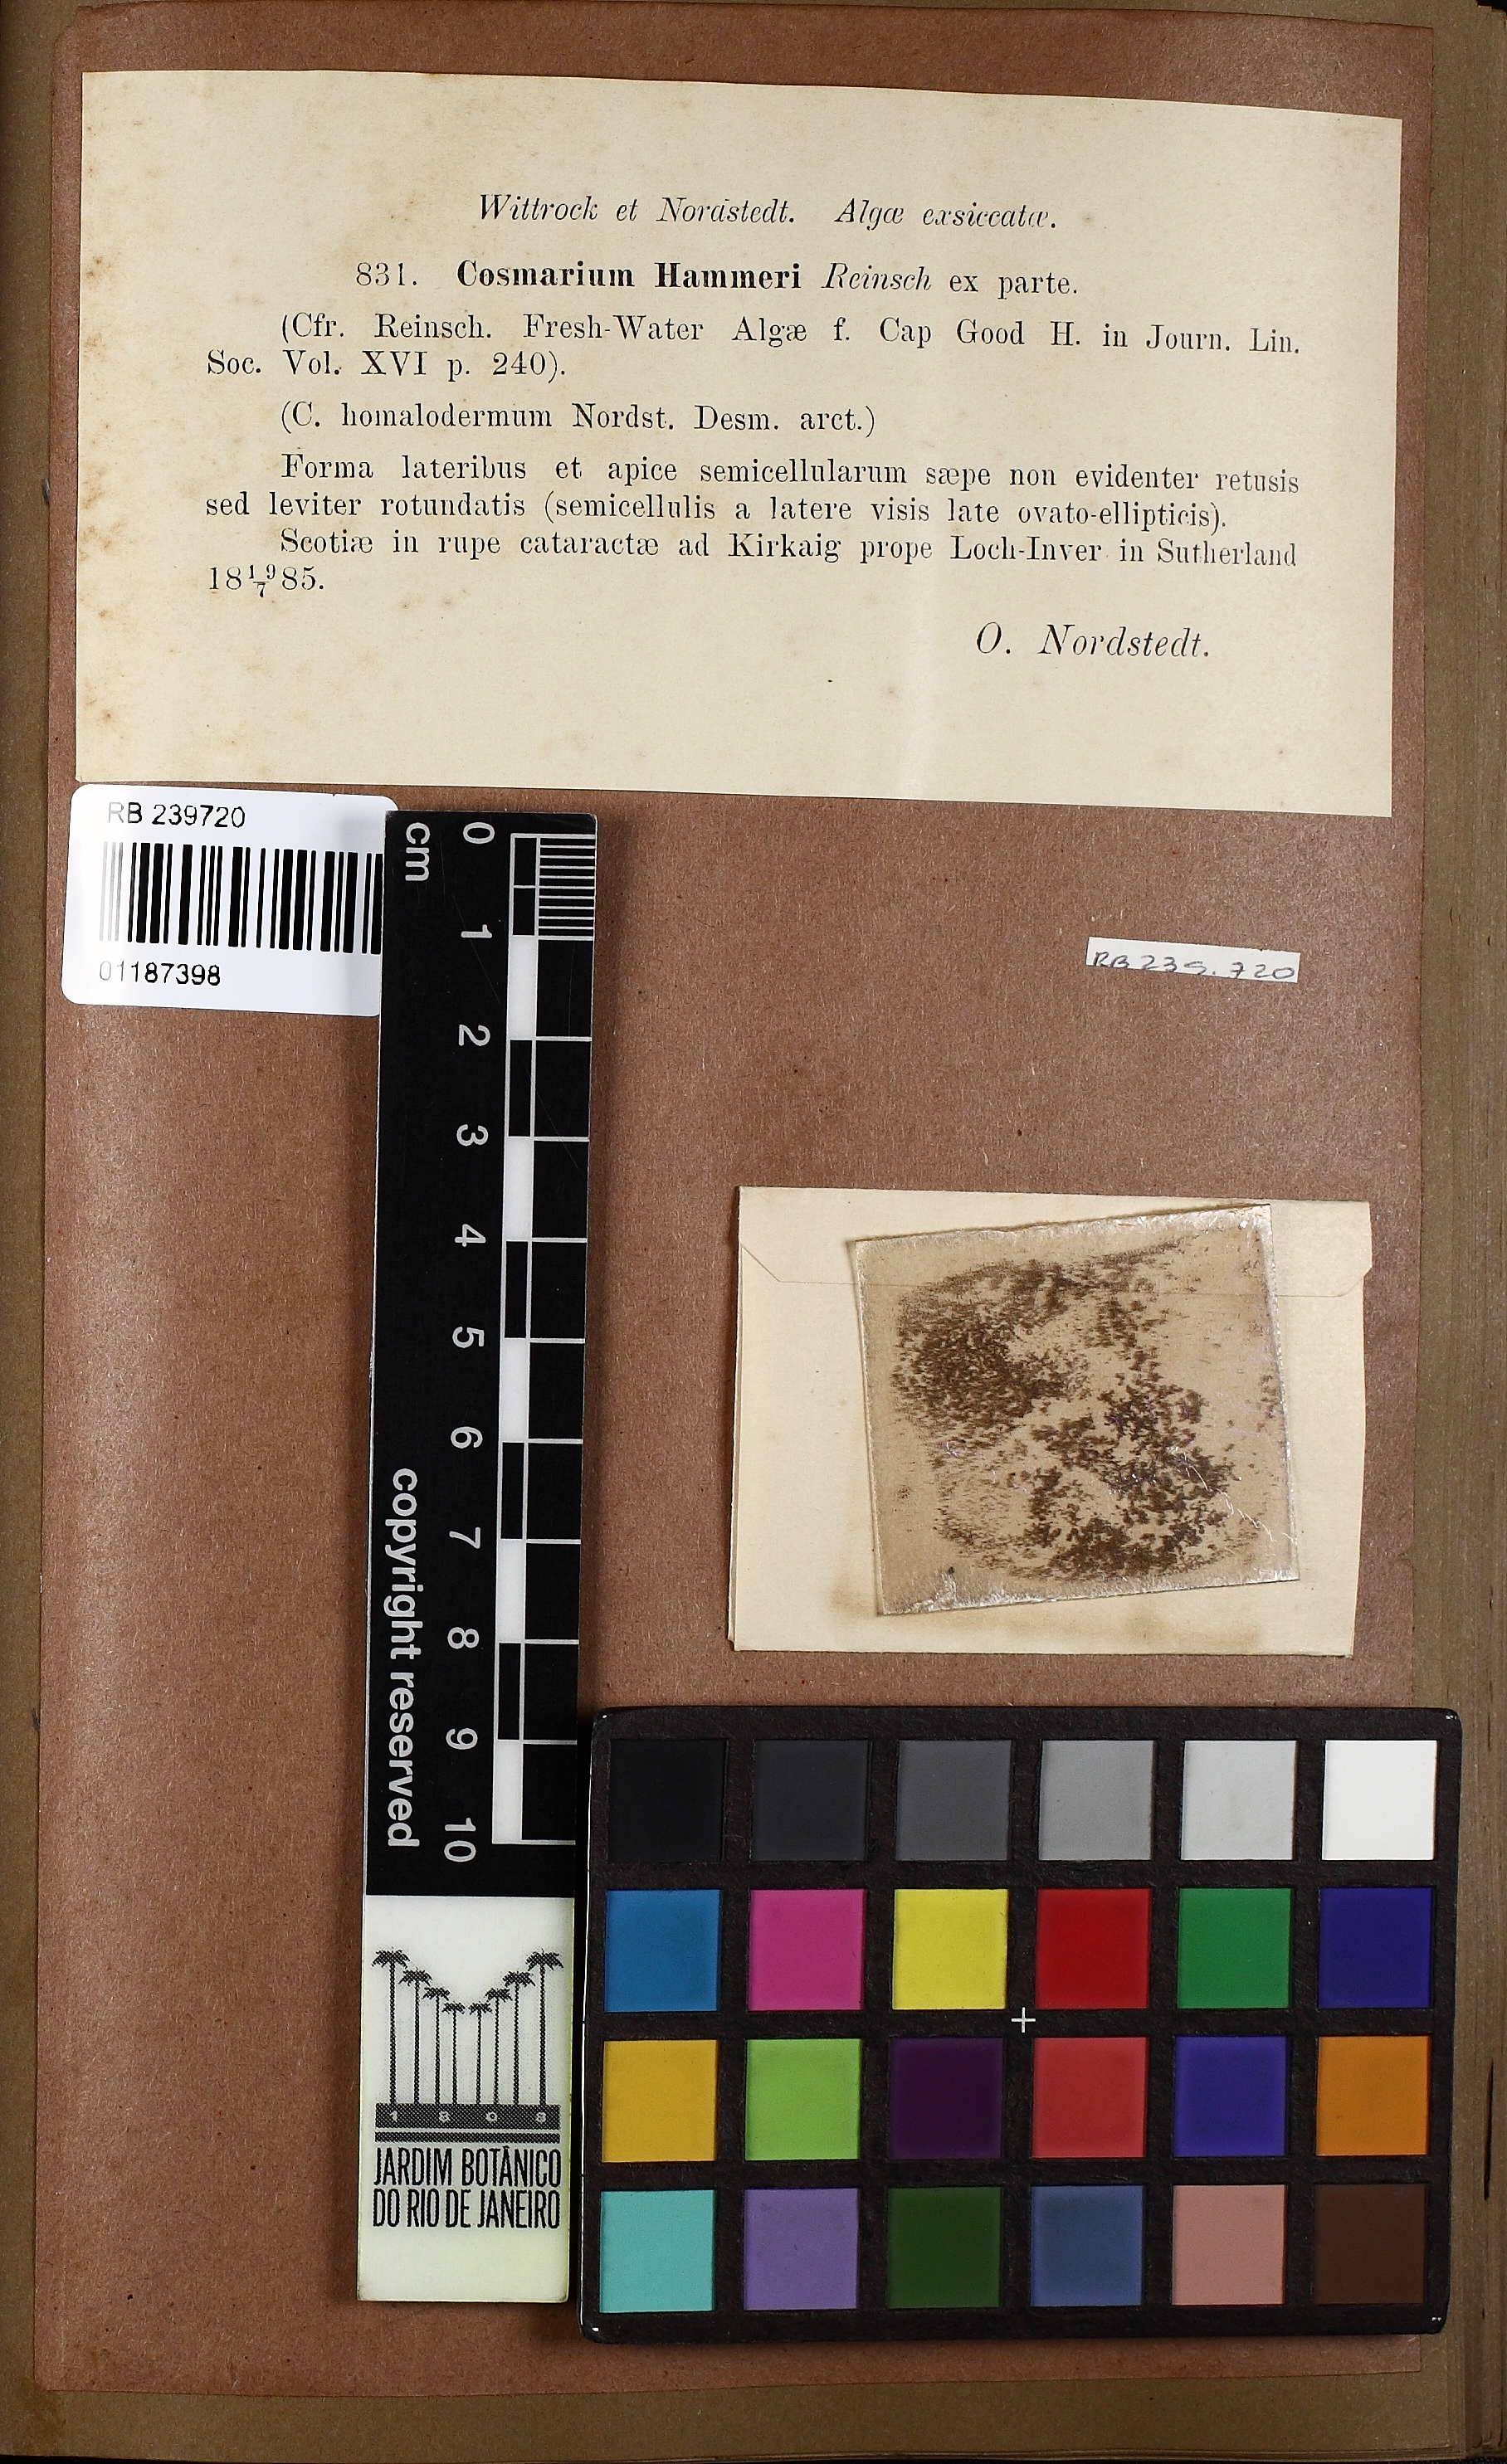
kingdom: Plantae
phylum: Charophyta
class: Conjugatophyceae
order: Desmidiales
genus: Cosmarium
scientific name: Cosmarium hammeri
